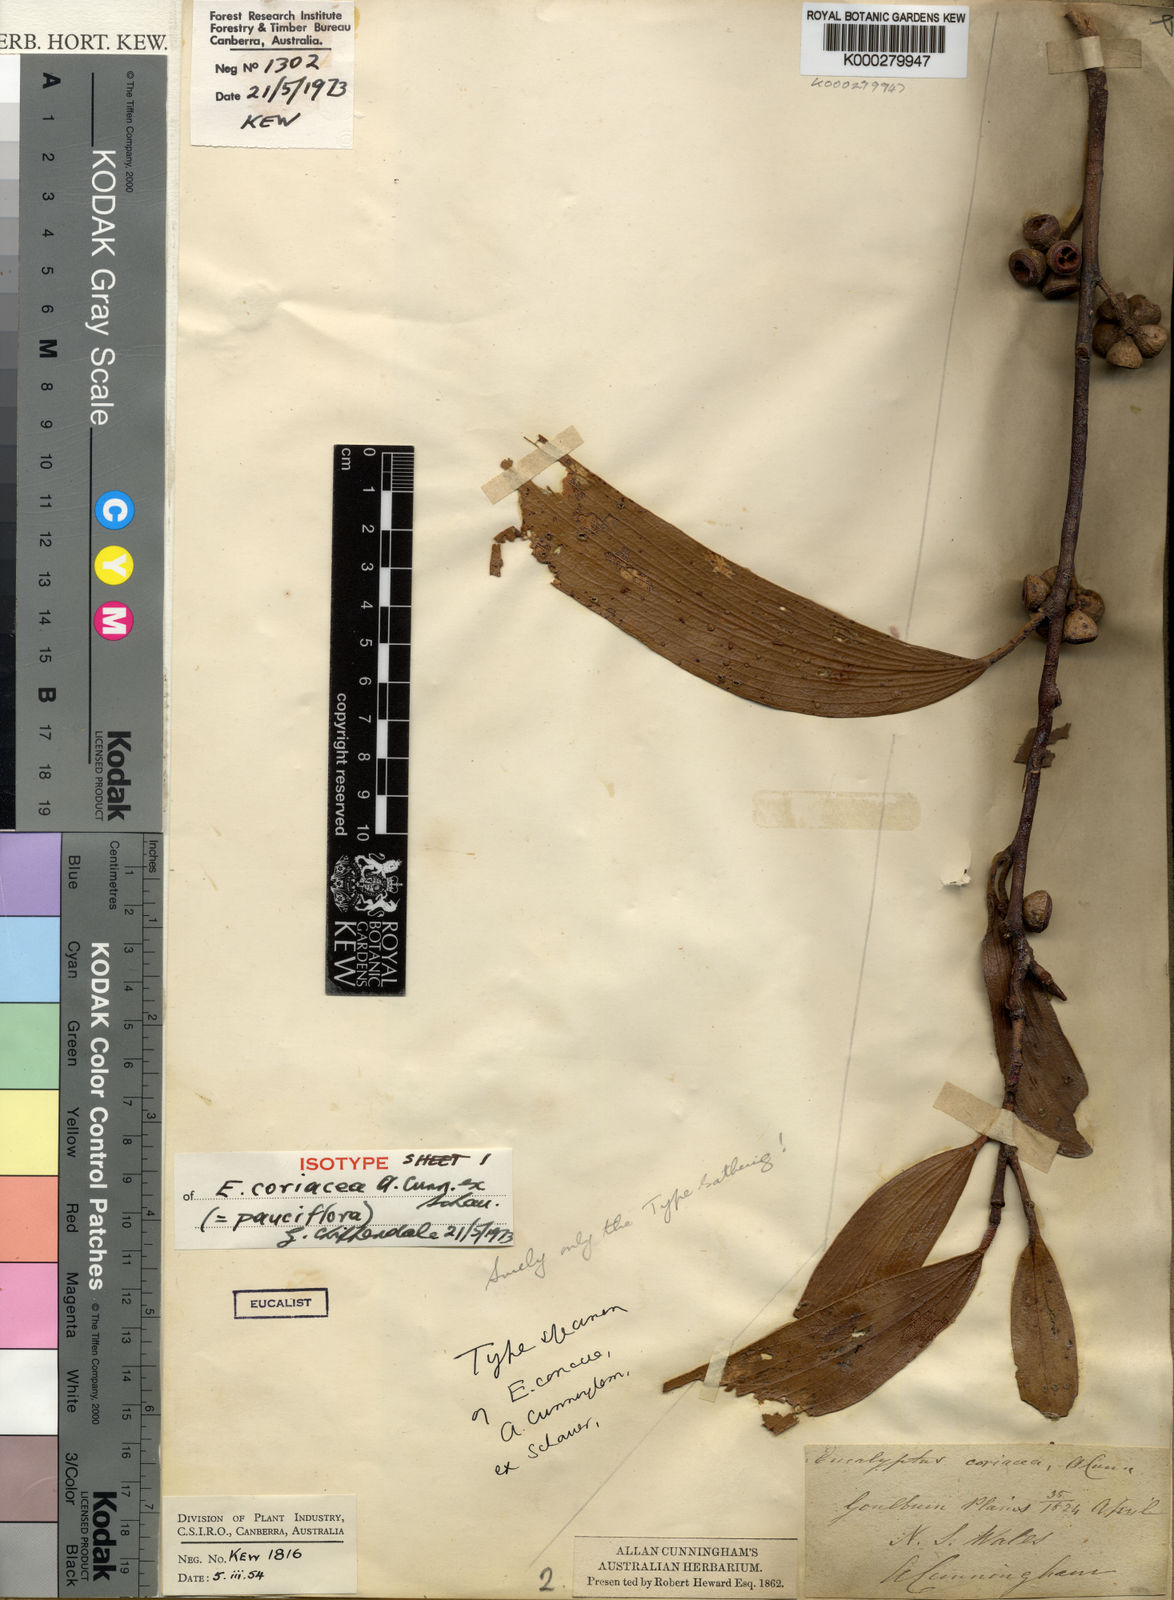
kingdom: Plantae
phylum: Tracheophyta
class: Magnoliopsida
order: Myrtales
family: Myrtaceae
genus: Eucalyptus
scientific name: Eucalyptus pauciflora
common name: Snow gum
